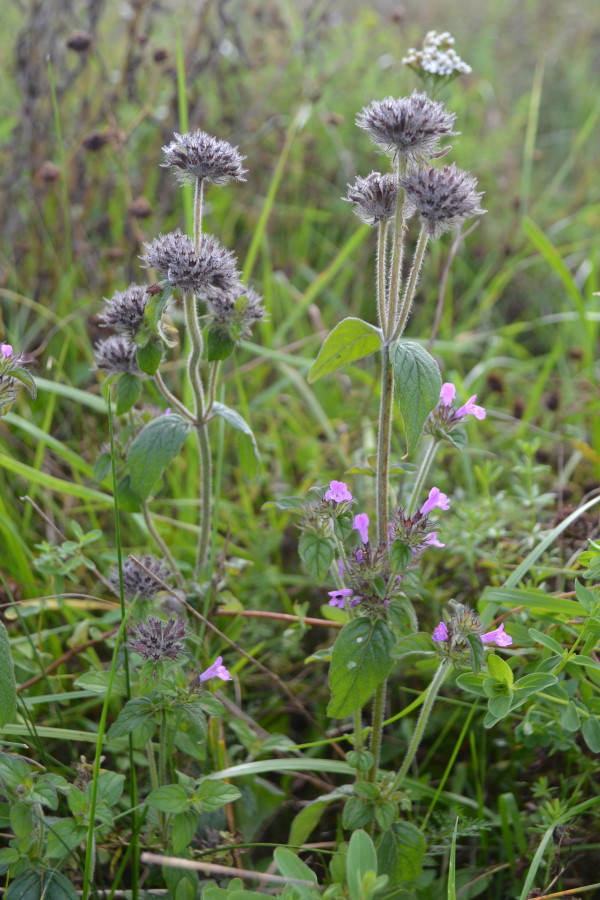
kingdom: Plantae
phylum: Tracheophyta
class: Magnoliopsida
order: Lamiales
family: Lamiaceae
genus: Clinopodium
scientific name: Clinopodium vulgare
